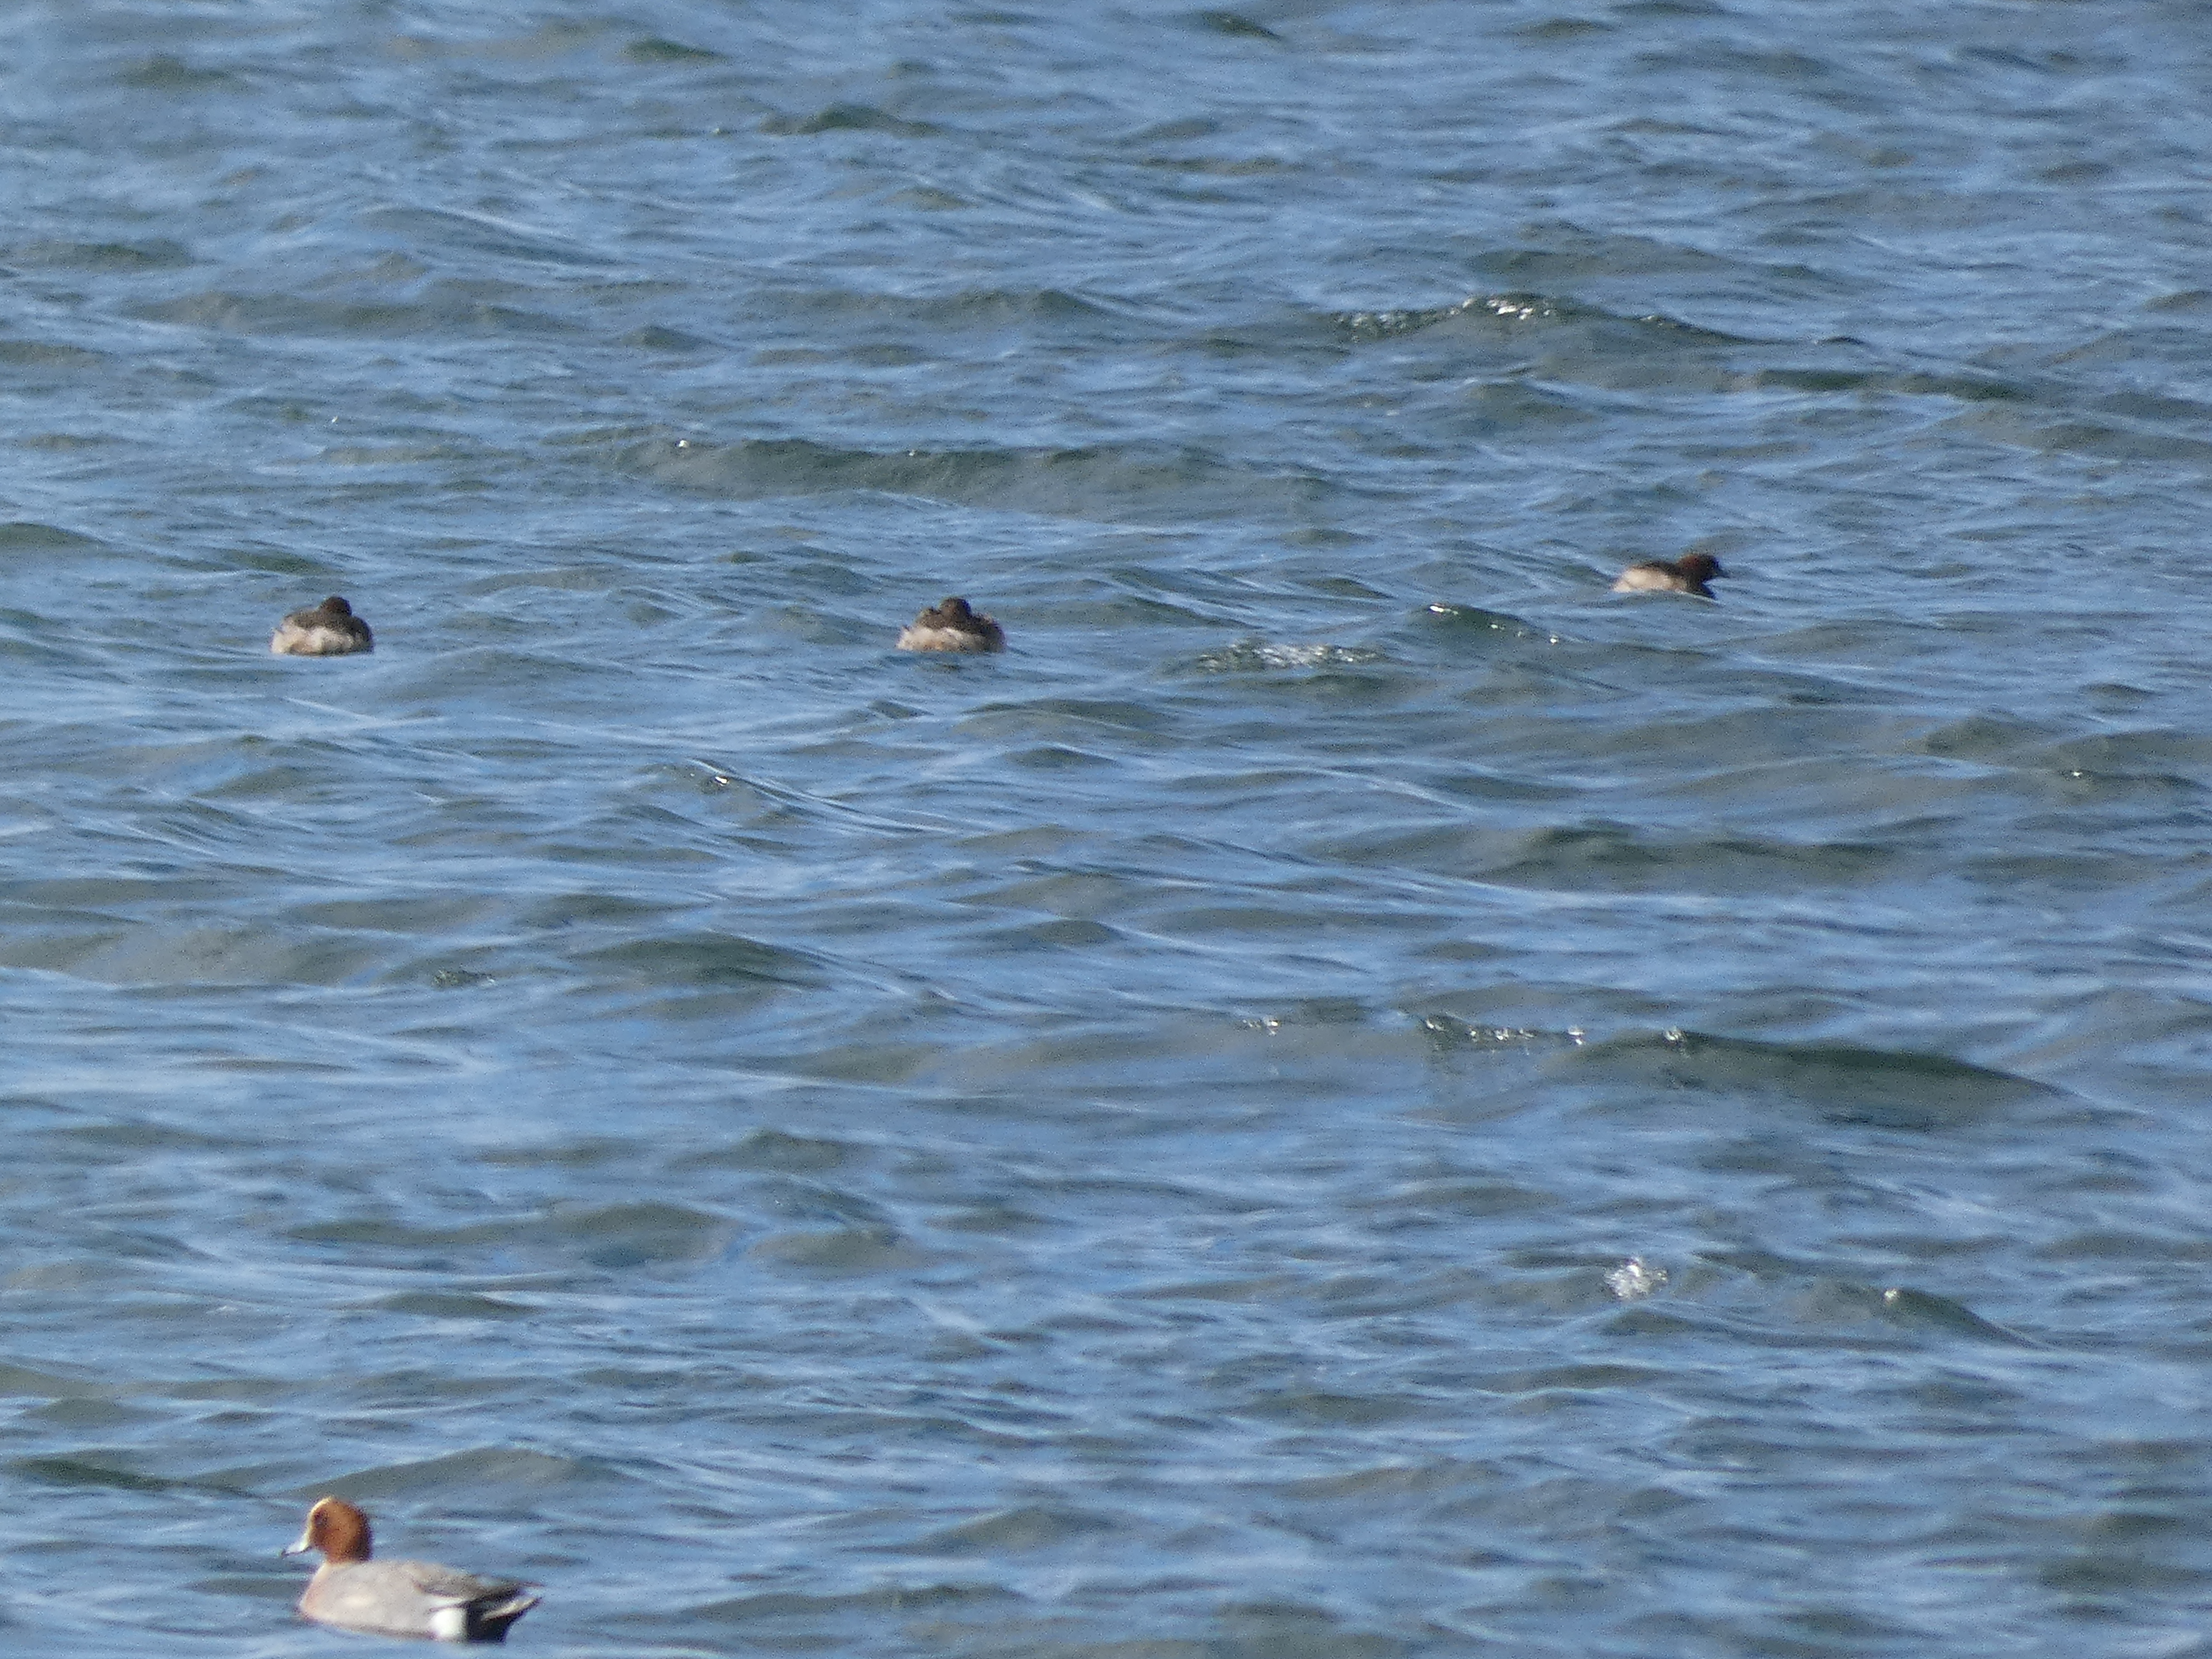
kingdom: Animalia
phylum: Chordata
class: Aves
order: Podicipediformes
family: Podicipedidae
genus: Tachybaptus
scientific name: Tachybaptus ruficollis
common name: Lille lappedykker
